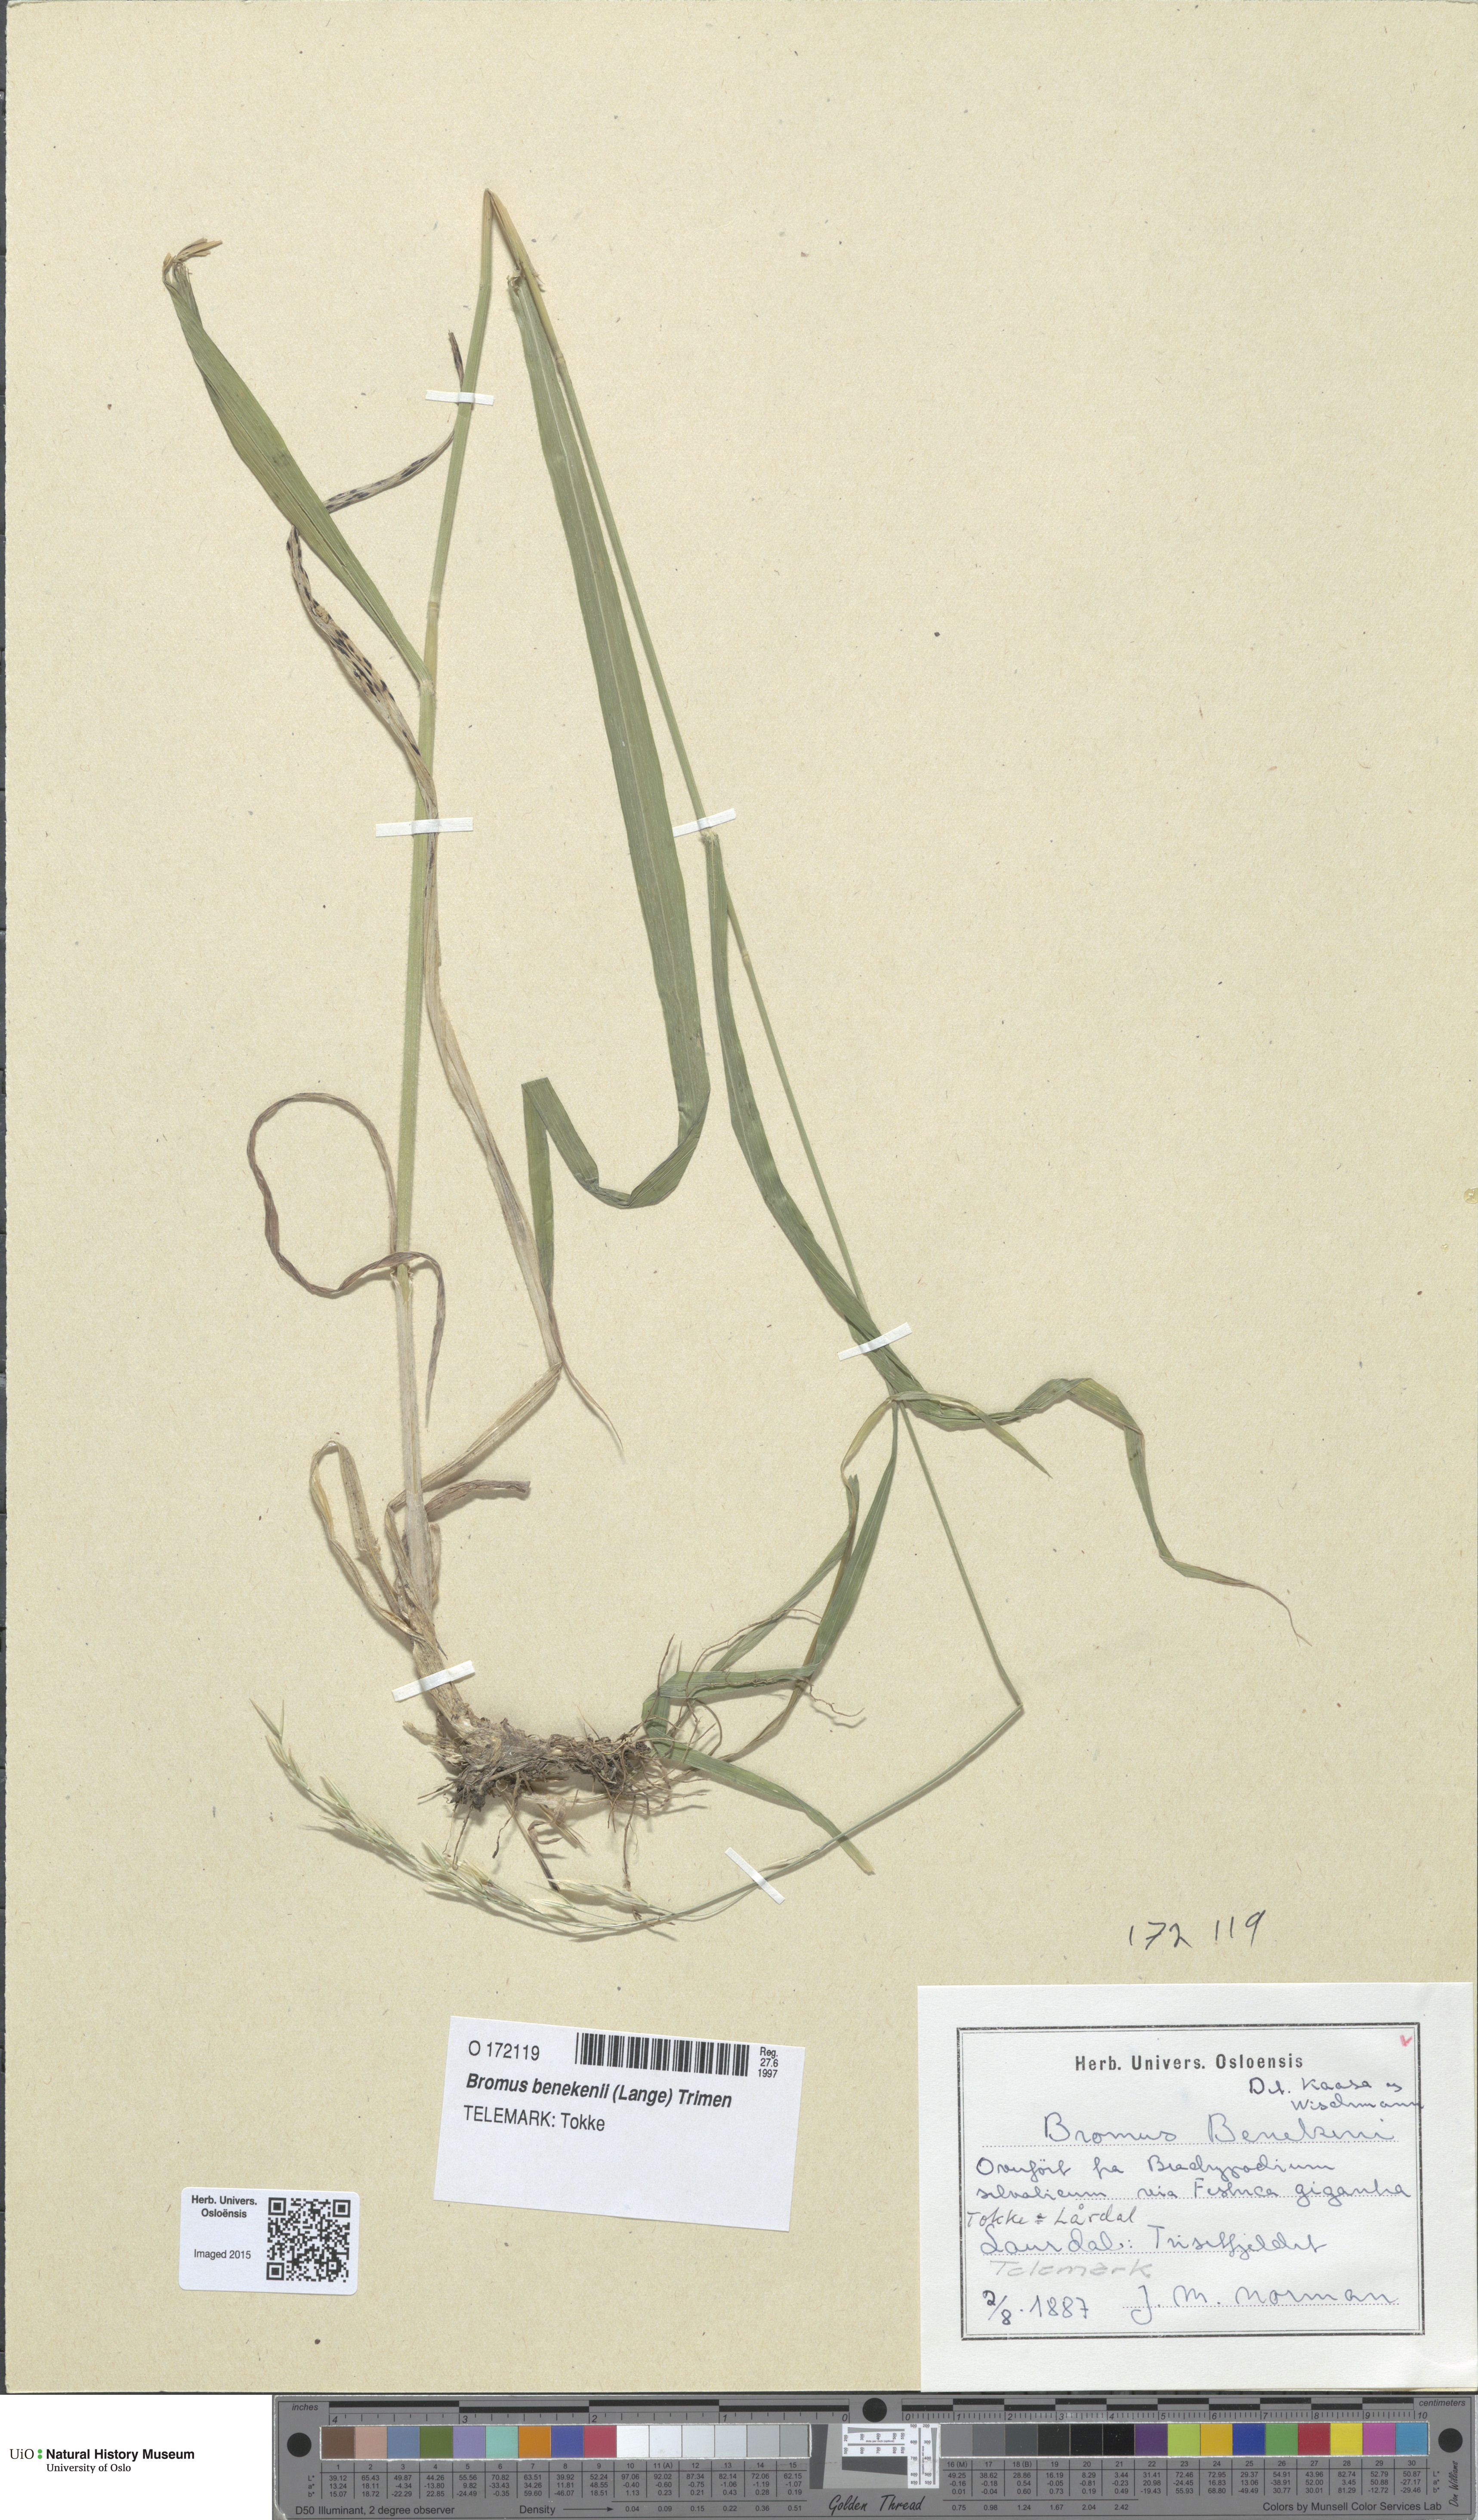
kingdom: Plantae
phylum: Tracheophyta
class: Liliopsida
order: Poales
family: Poaceae
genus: Bromus
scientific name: Bromus benekenii
